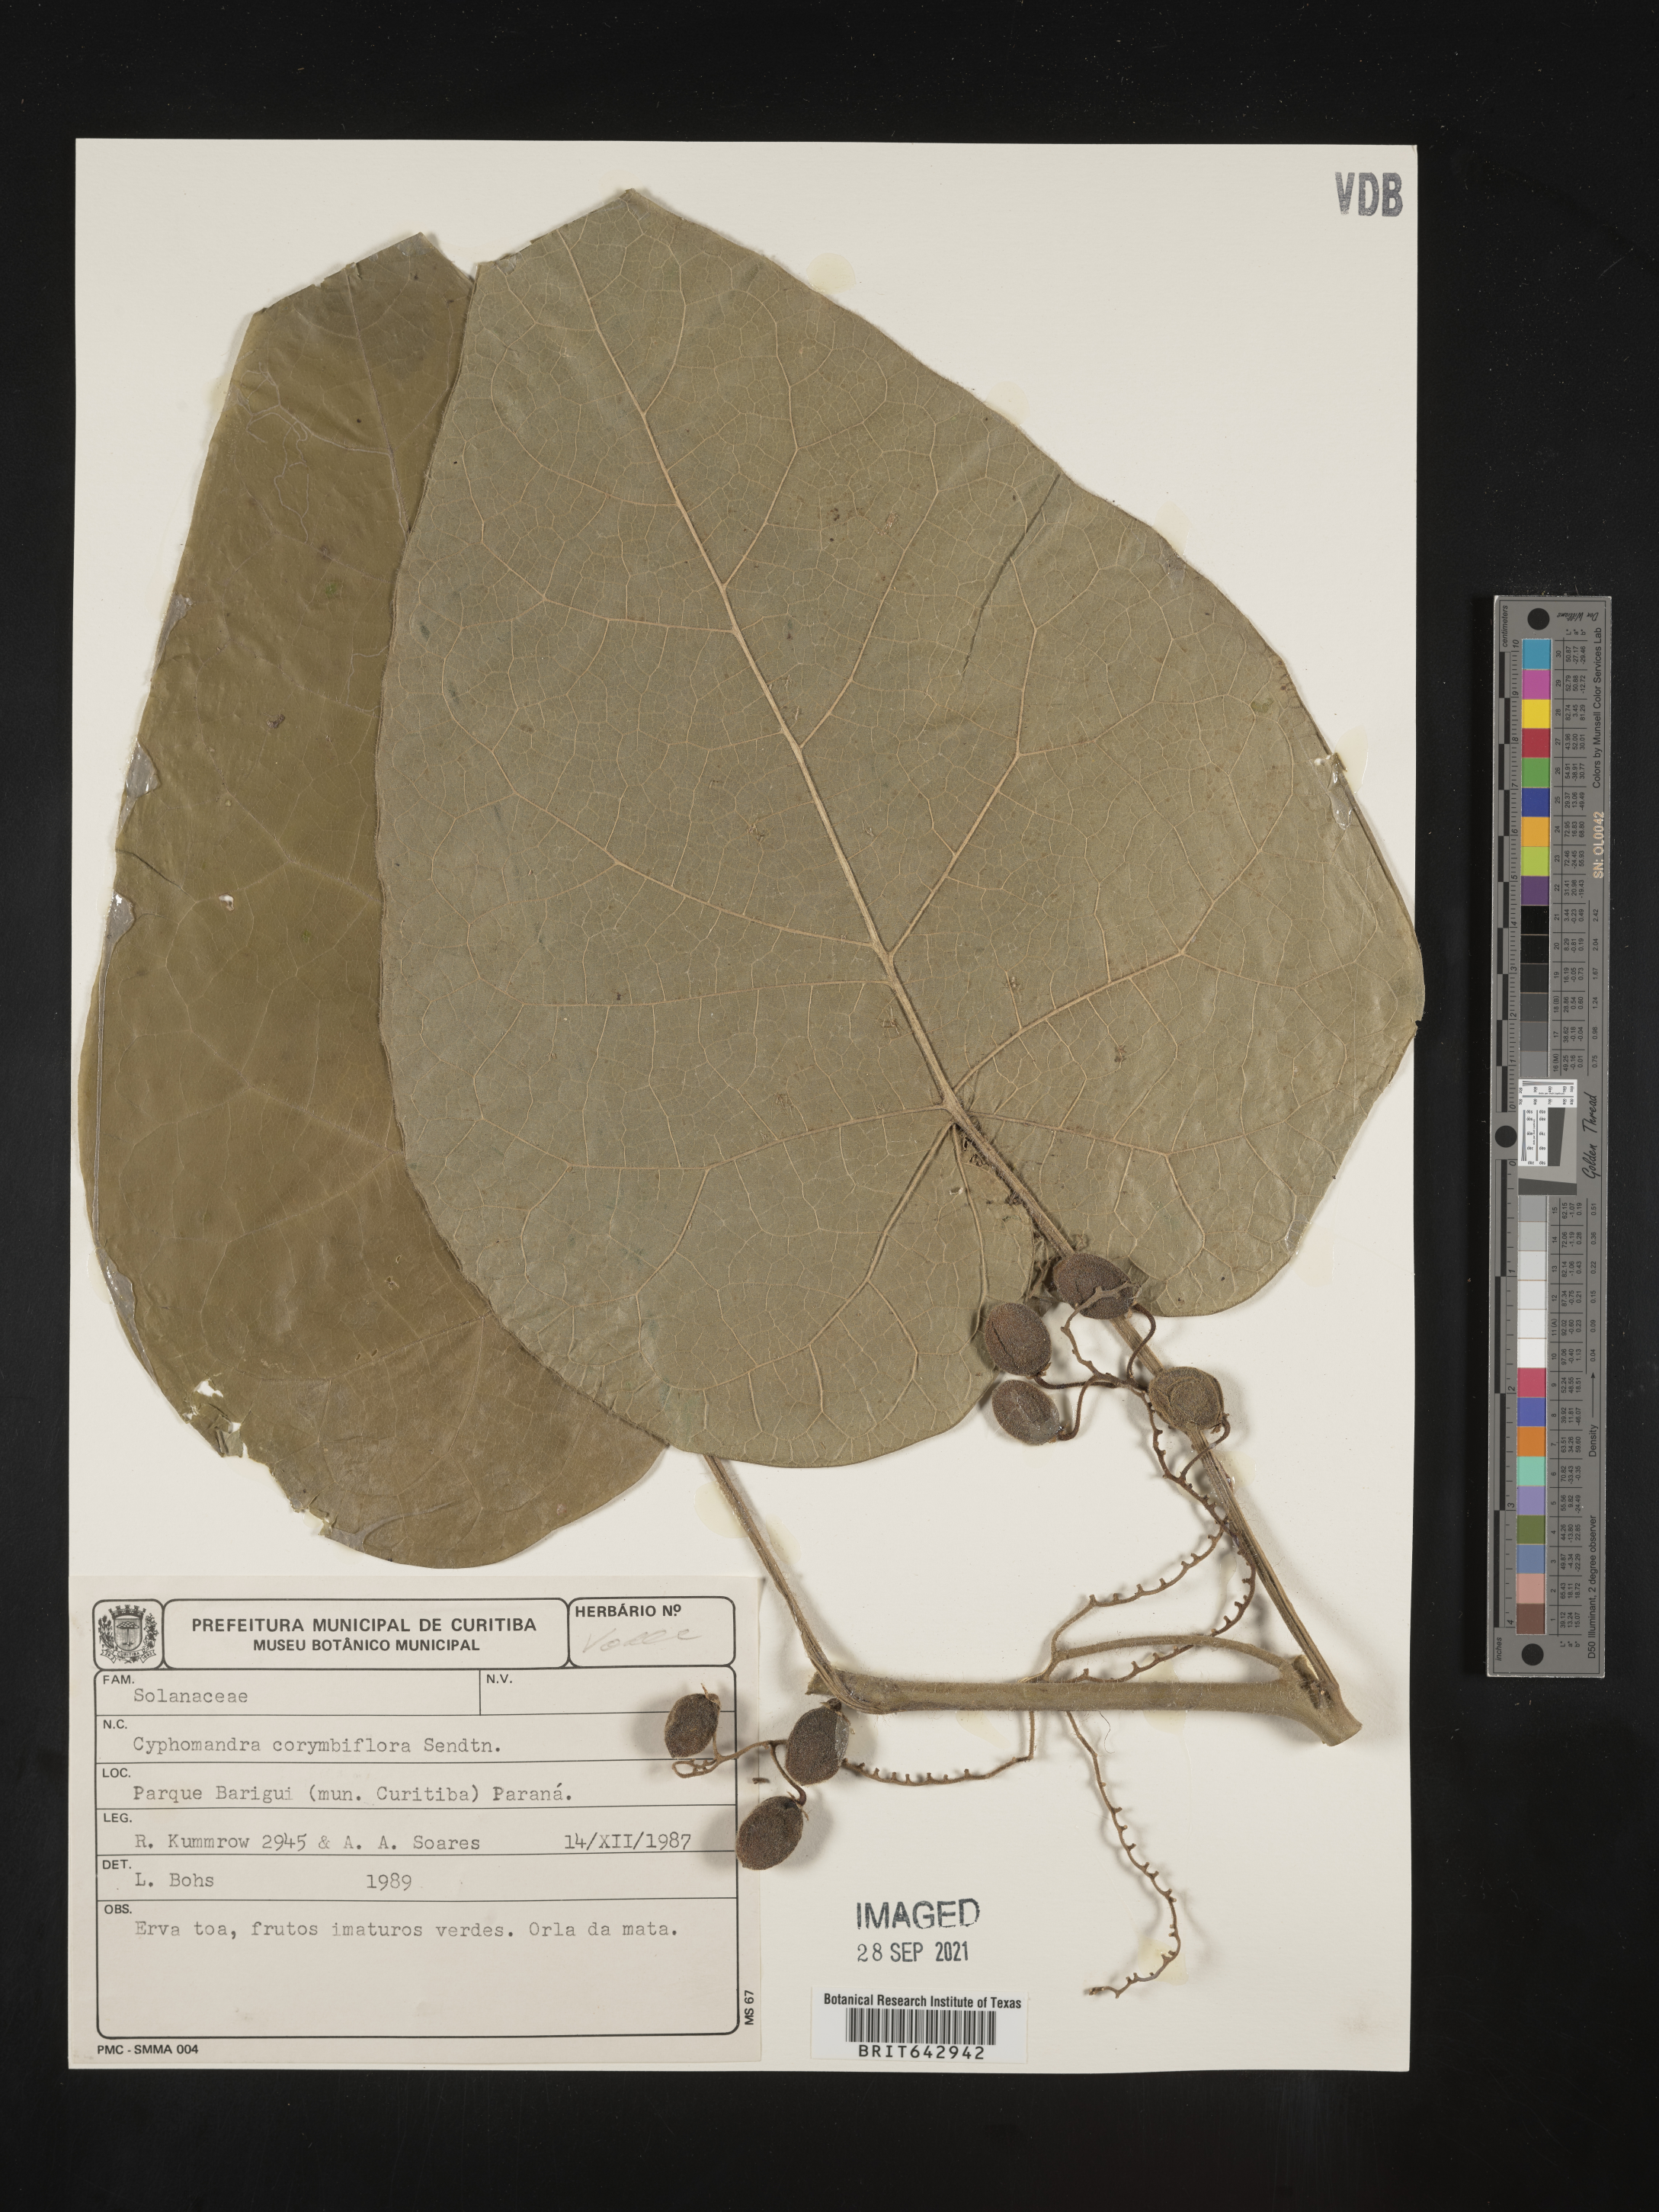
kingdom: Plantae
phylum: Tracheophyta
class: Magnoliopsida
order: Solanales
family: Solanaceae
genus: Solanum
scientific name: Solanum
